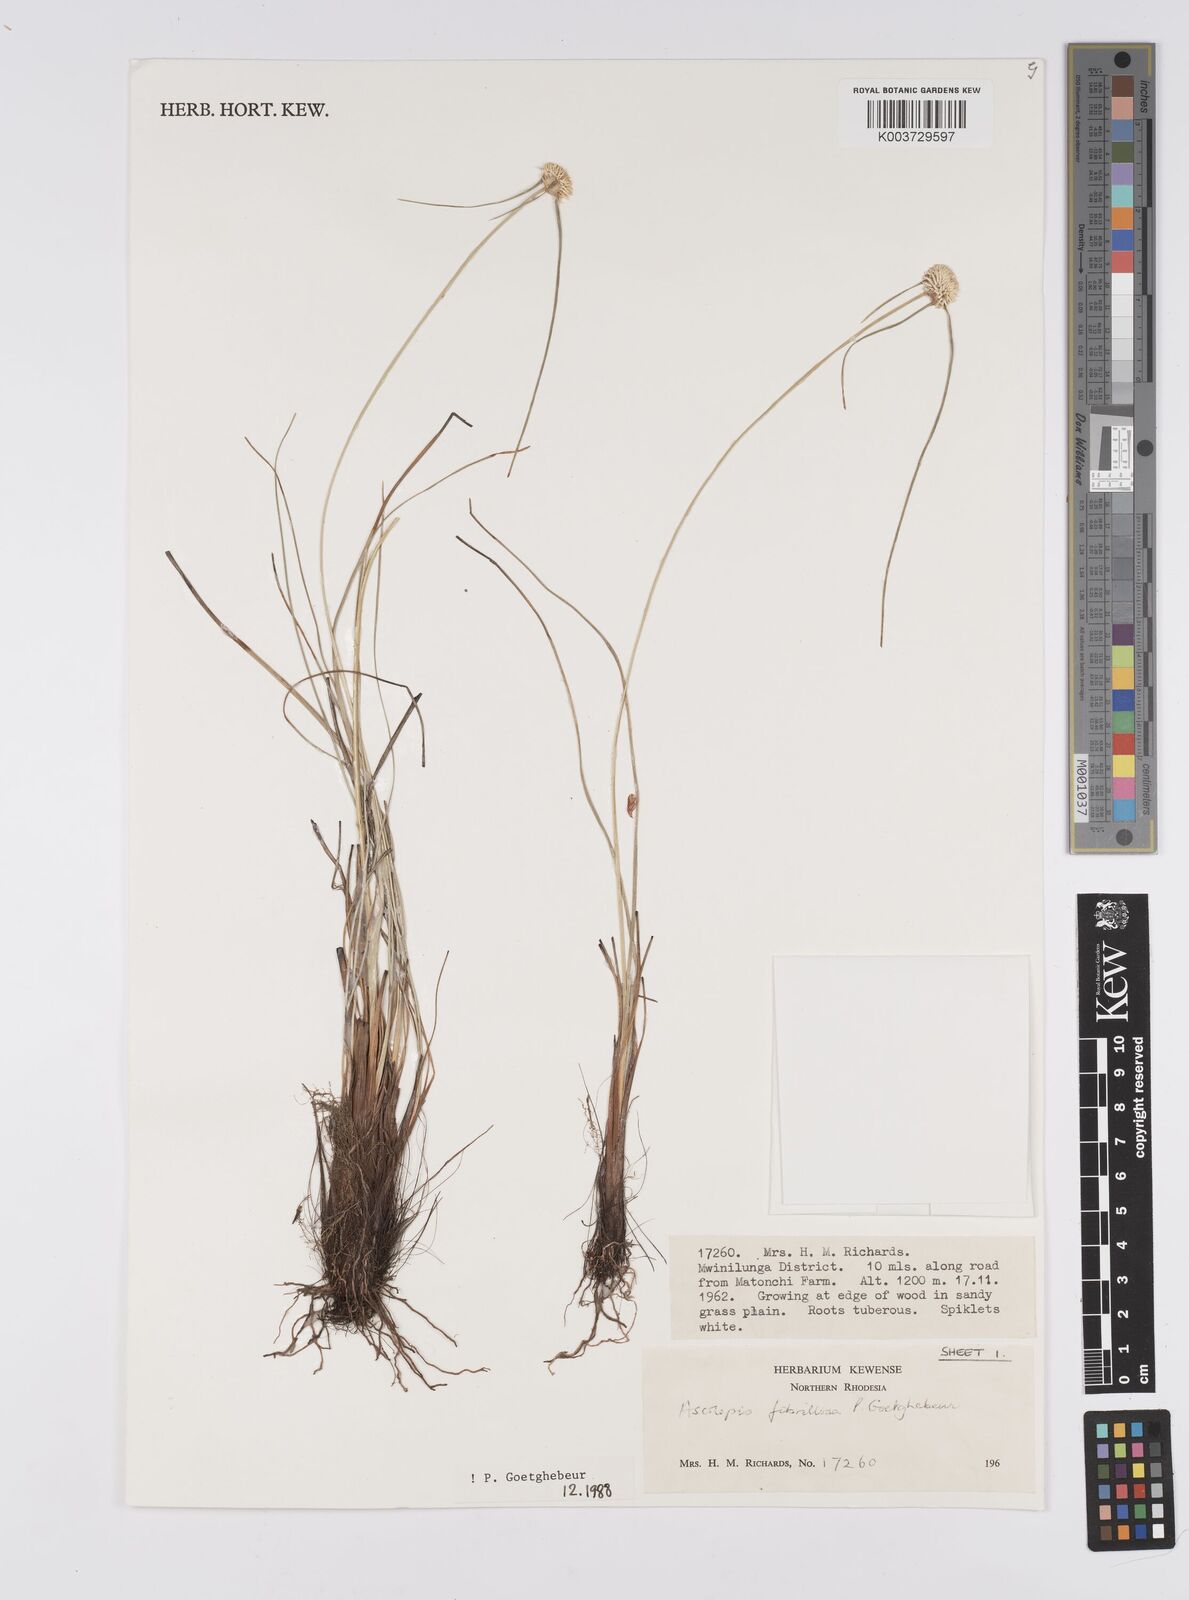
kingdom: Plantae
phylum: Tracheophyta
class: Liliopsida
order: Poales
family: Cyperaceae
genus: Cyperus
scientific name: Cyperus
